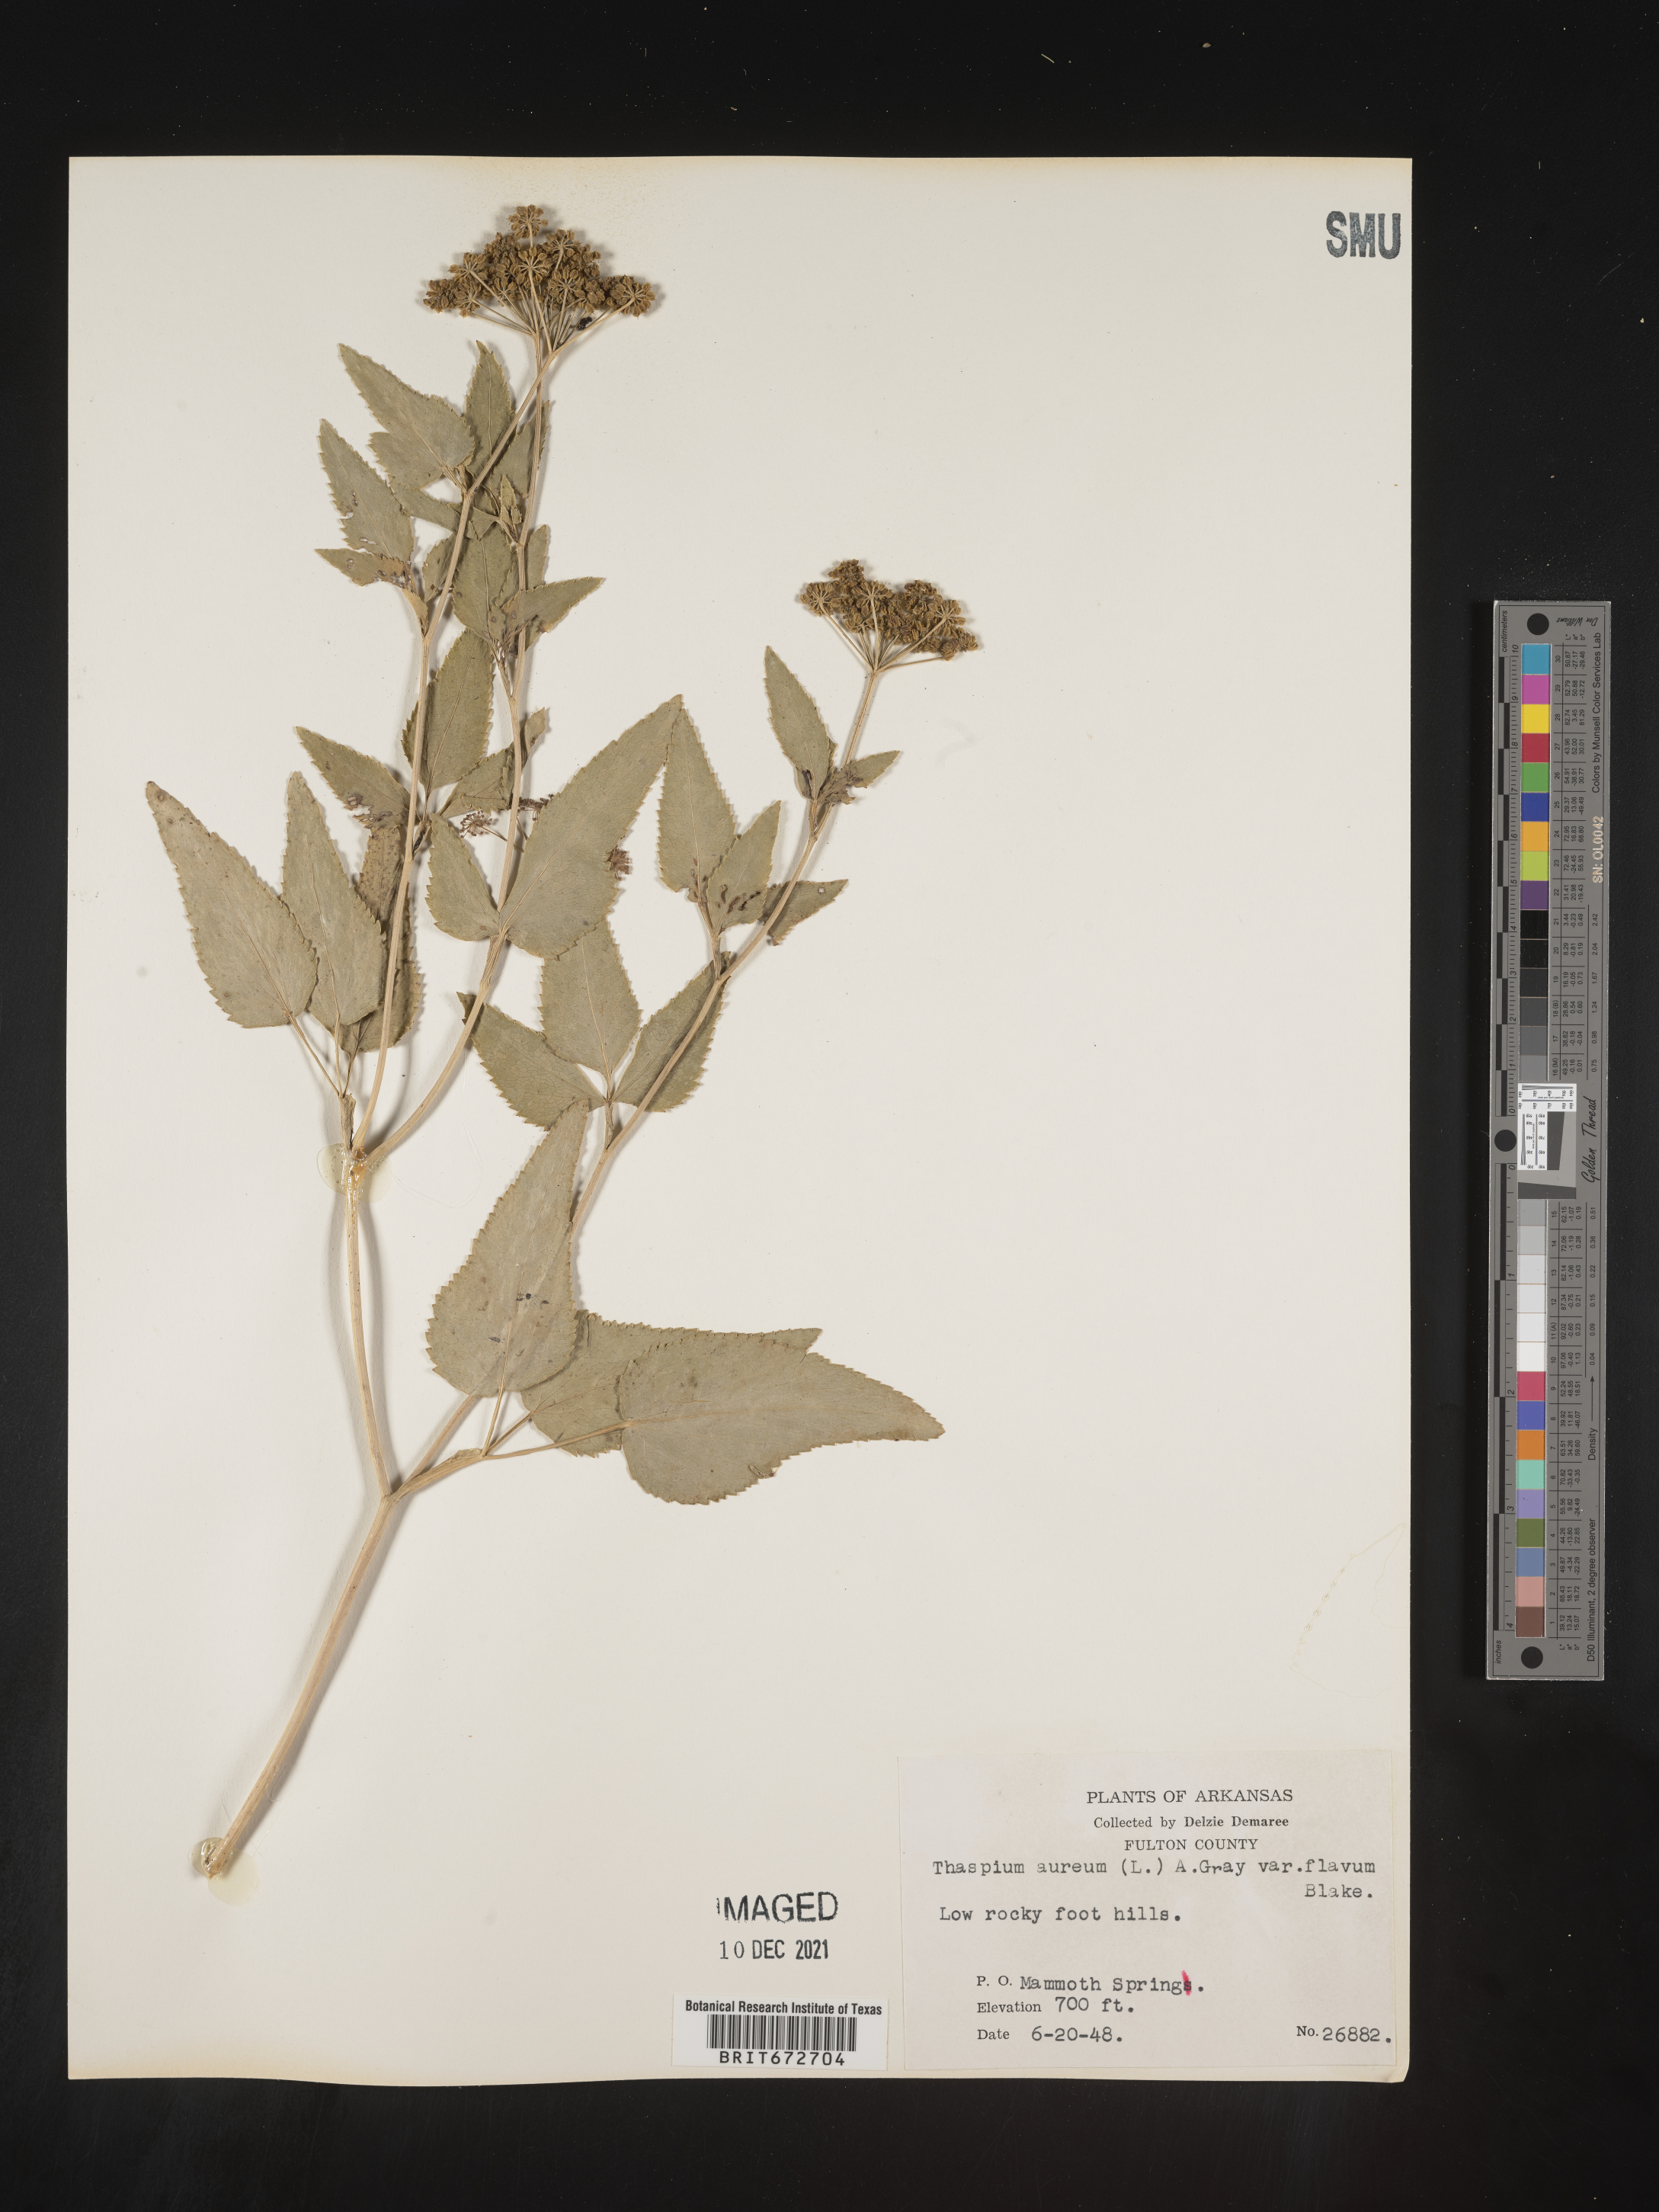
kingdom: Plantae
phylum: Tracheophyta
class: Magnoliopsida
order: Apiales
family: Apiaceae
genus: Thaspium
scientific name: Thaspium
